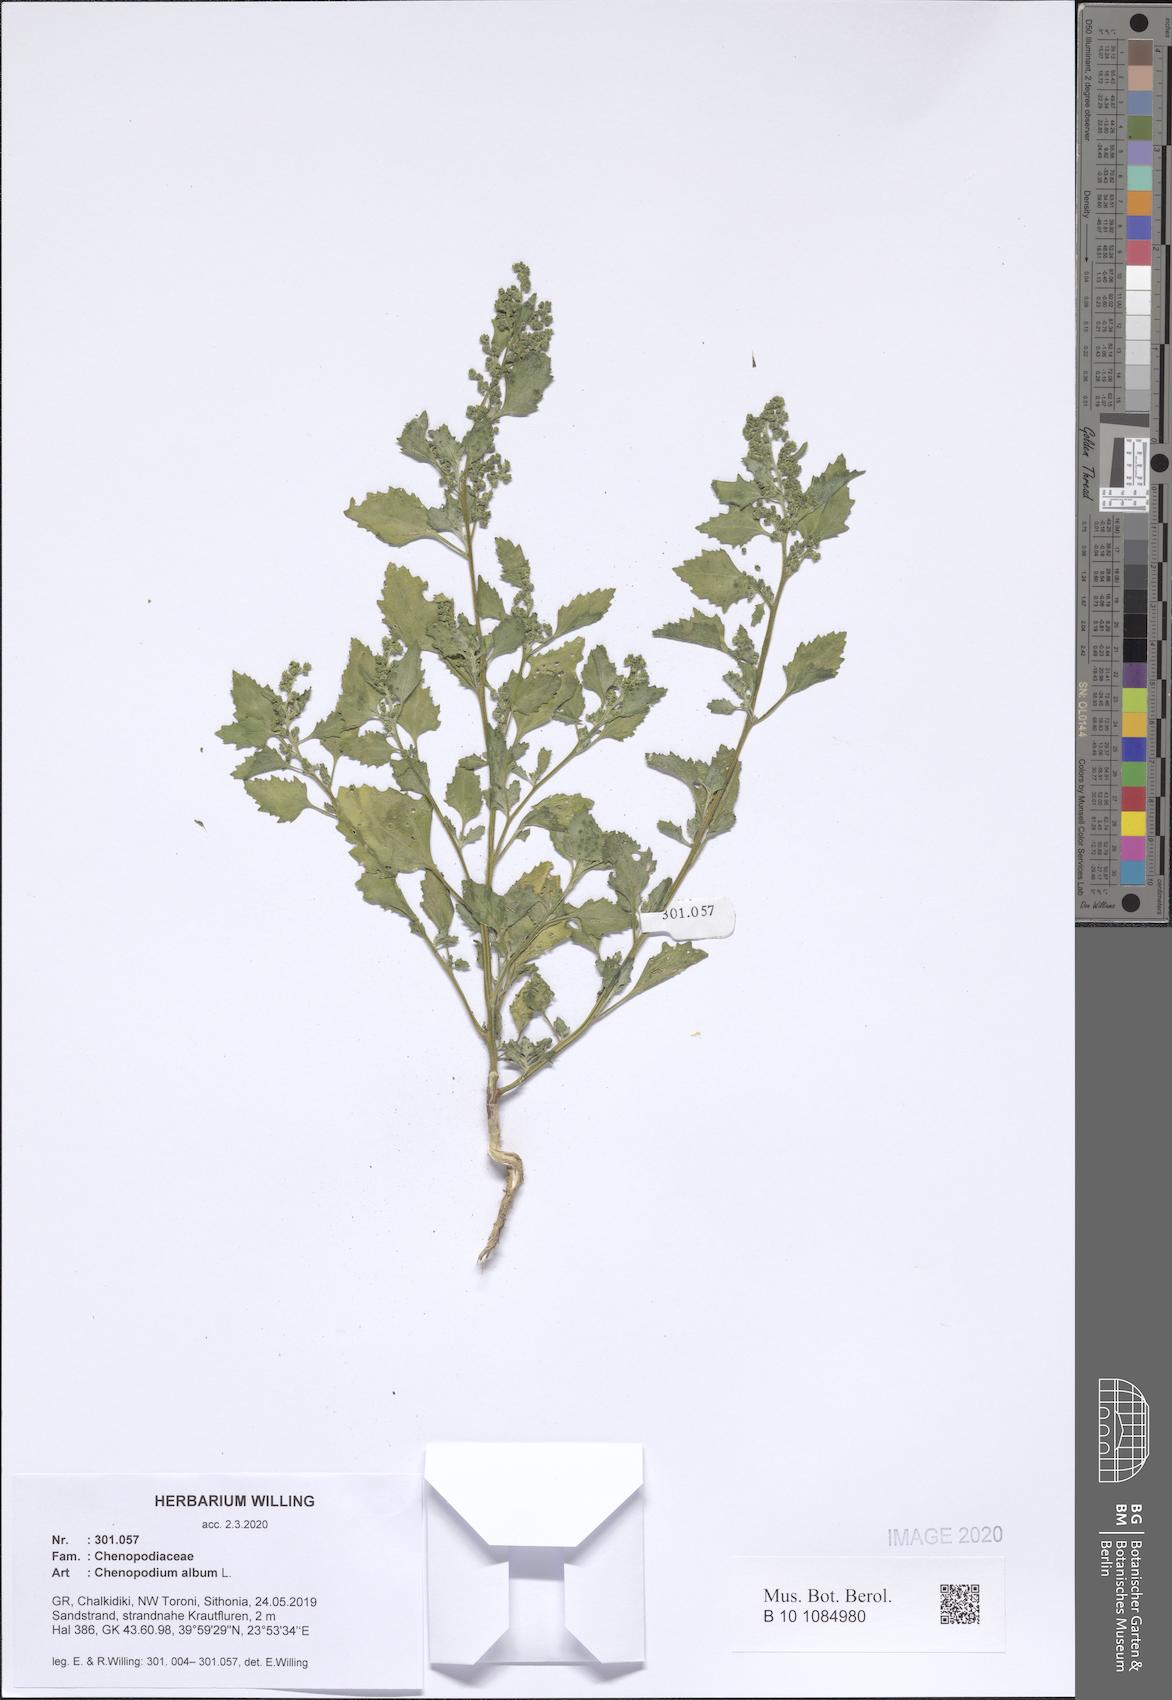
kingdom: Plantae
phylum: Tracheophyta
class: Magnoliopsida
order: Caryophyllales
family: Amaranthaceae
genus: Chenopodium
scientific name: Chenopodium album
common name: Fat-hen
